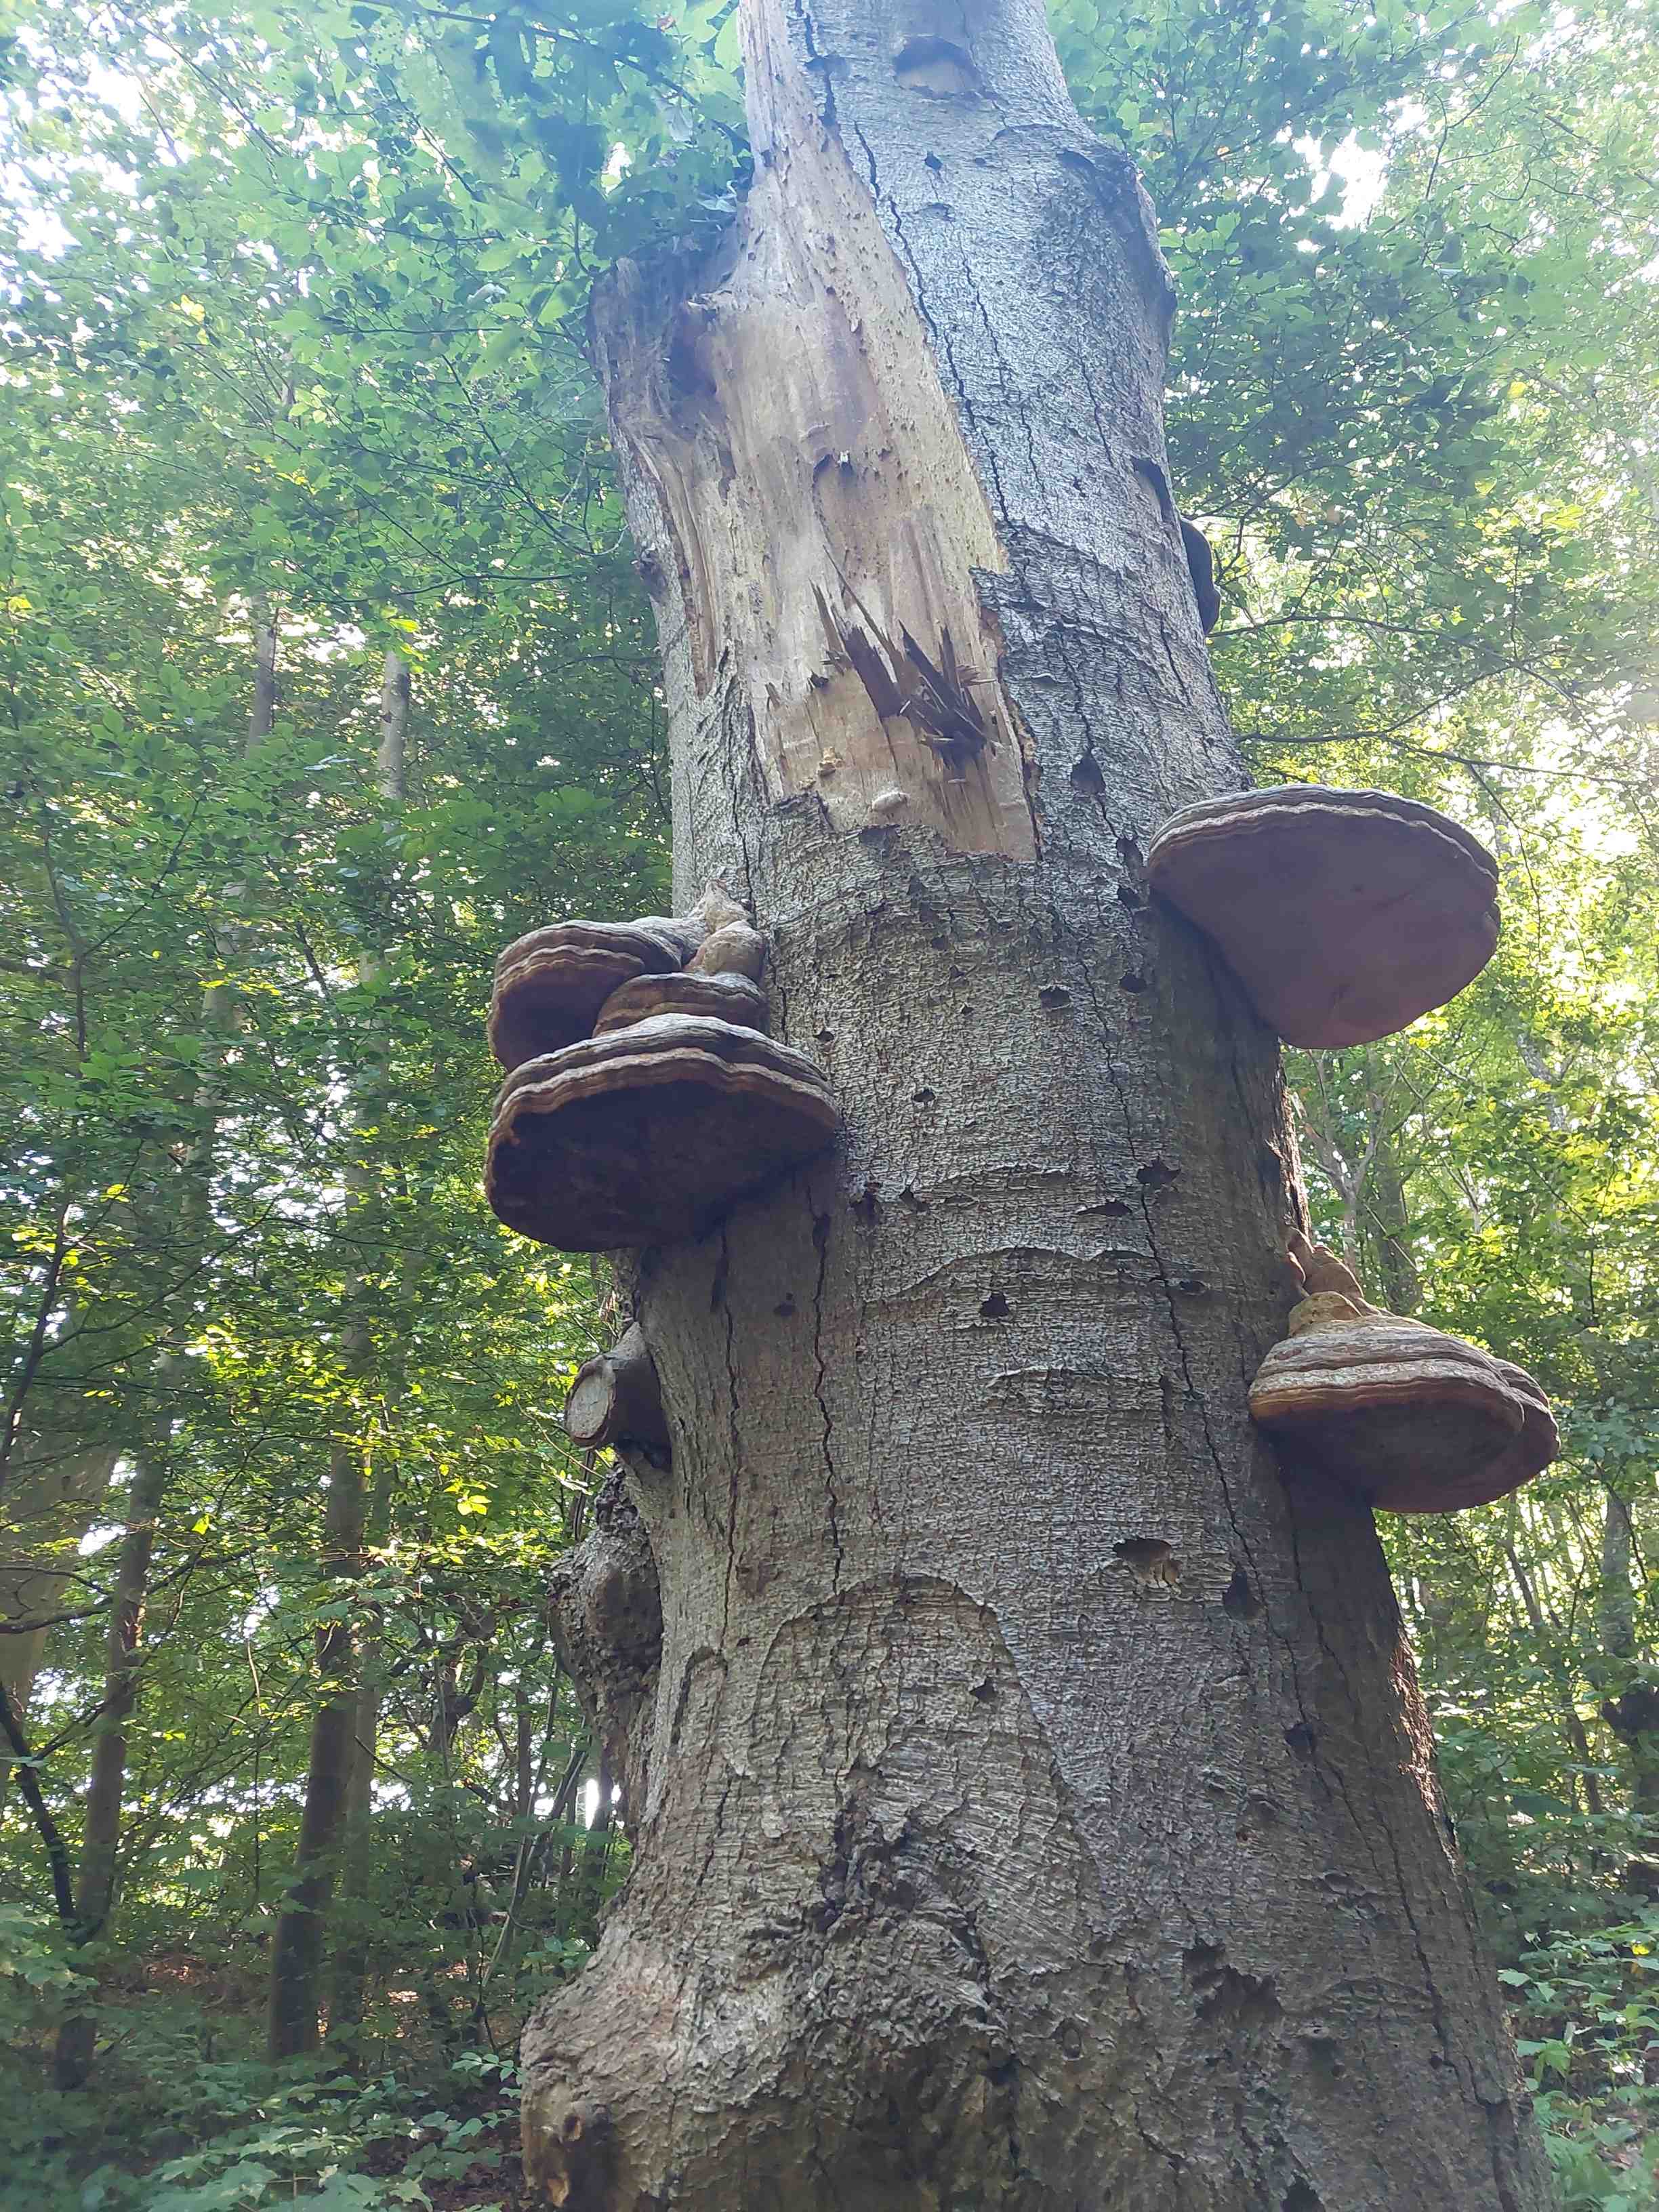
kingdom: Fungi
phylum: Basidiomycota
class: Agaricomycetes
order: Polyporales
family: Polyporaceae
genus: Fomes
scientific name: Fomes fomentarius
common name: tøndersvamp
